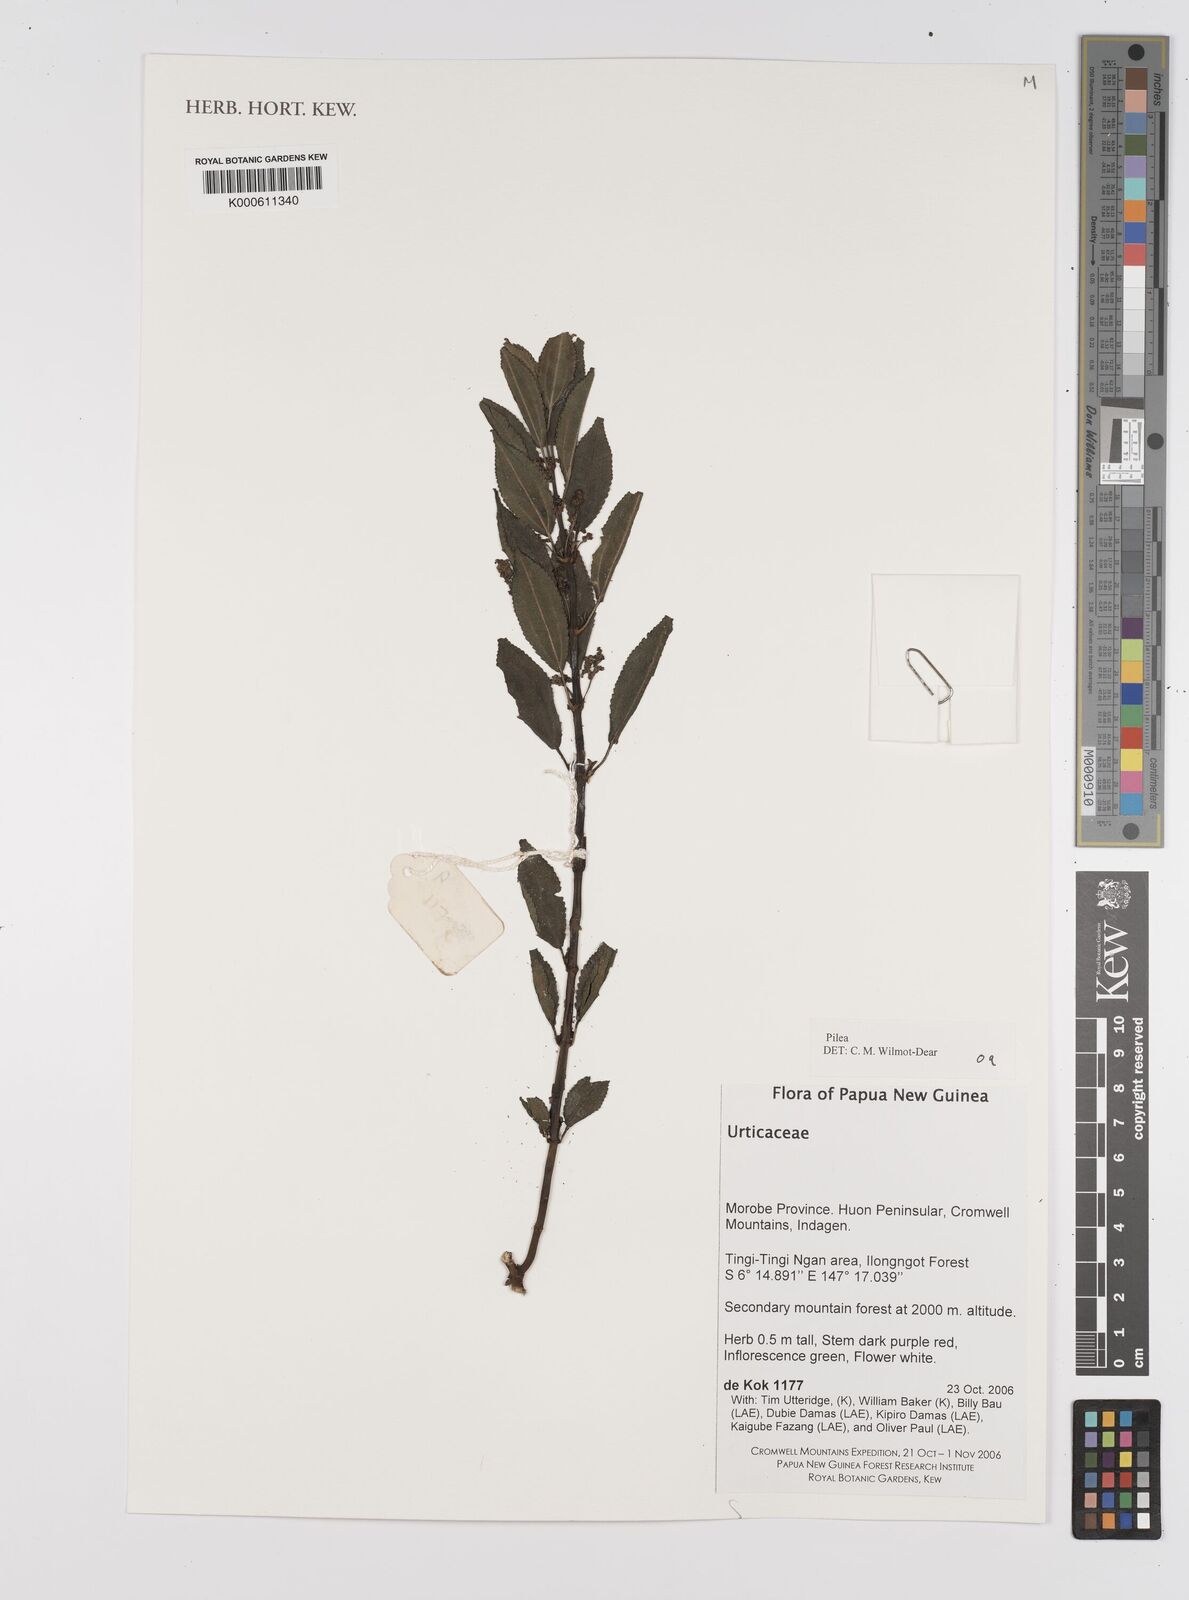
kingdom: Plantae
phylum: Tracheophyta
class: Magnoliopsida
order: Rosales
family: Urticaceae
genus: Pilea
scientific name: Pilea
